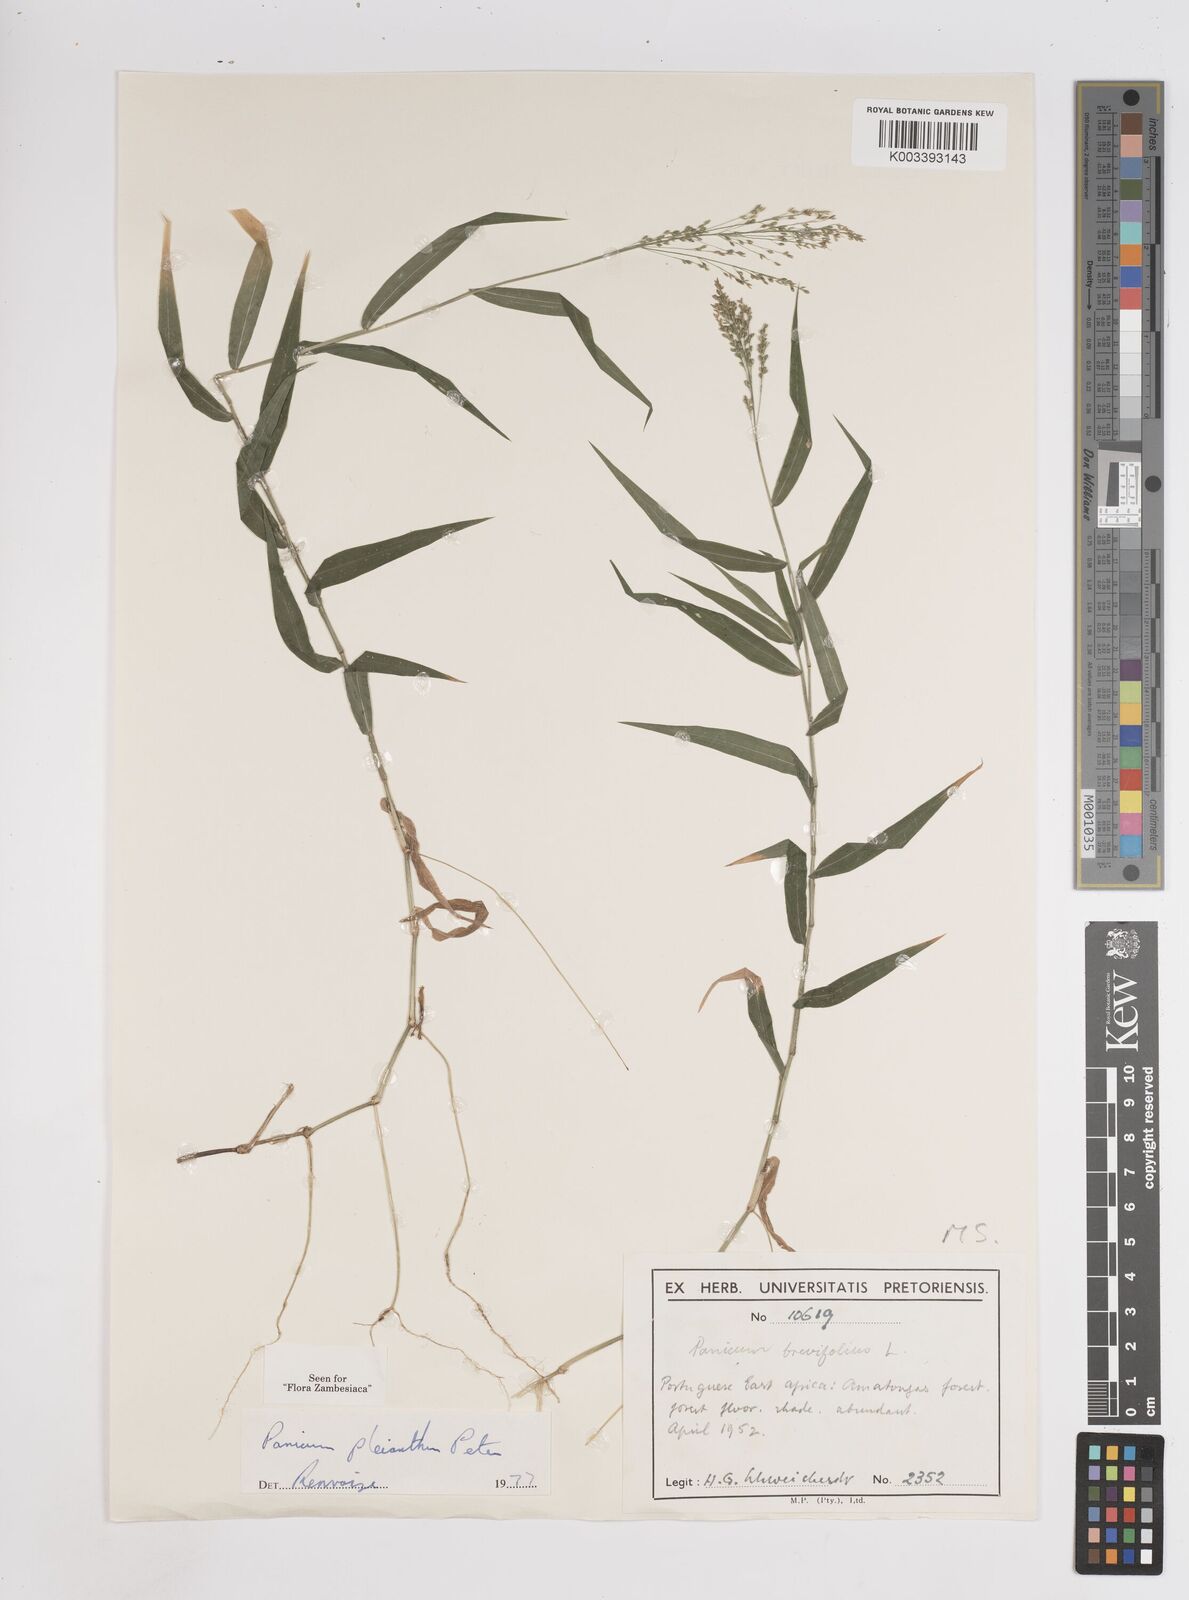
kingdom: Plantae
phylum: Tracheophyta
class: Liliopsida
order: Poales
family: Poaceae
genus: Panicum
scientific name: Panicum pleianthum
